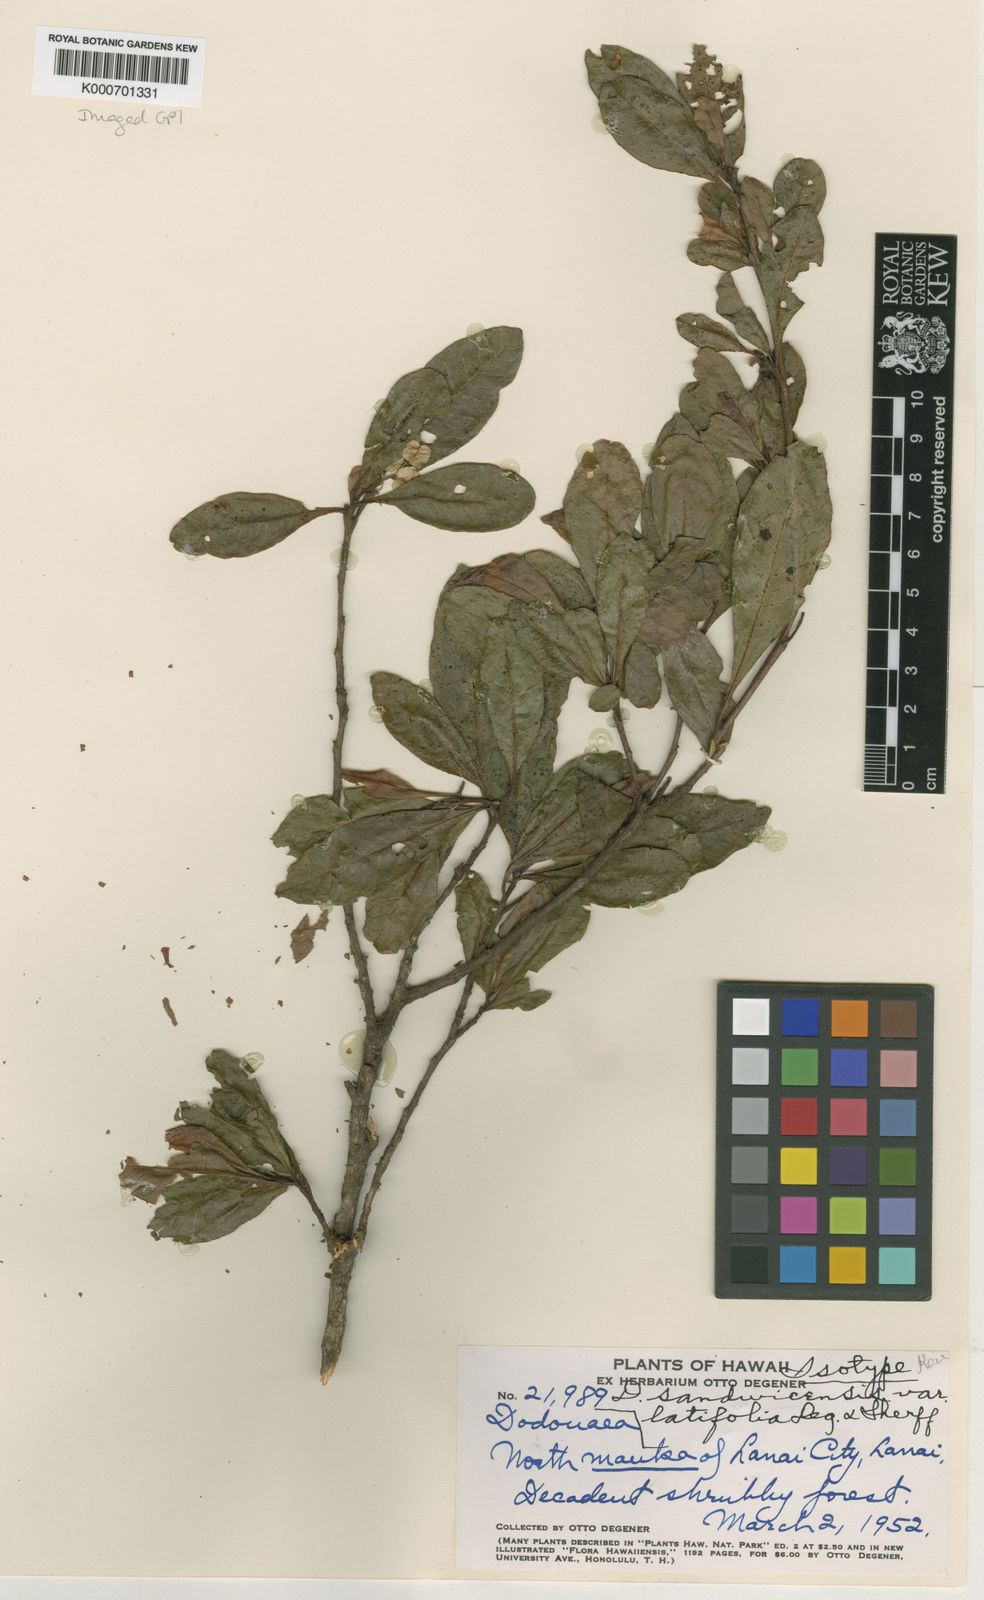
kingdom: Plantae
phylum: Tracheophyta
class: Magnoliopsida
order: Sapindales
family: Sapindaceae
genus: Dodonaea
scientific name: Dodonaea viscosa
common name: Hopbush
